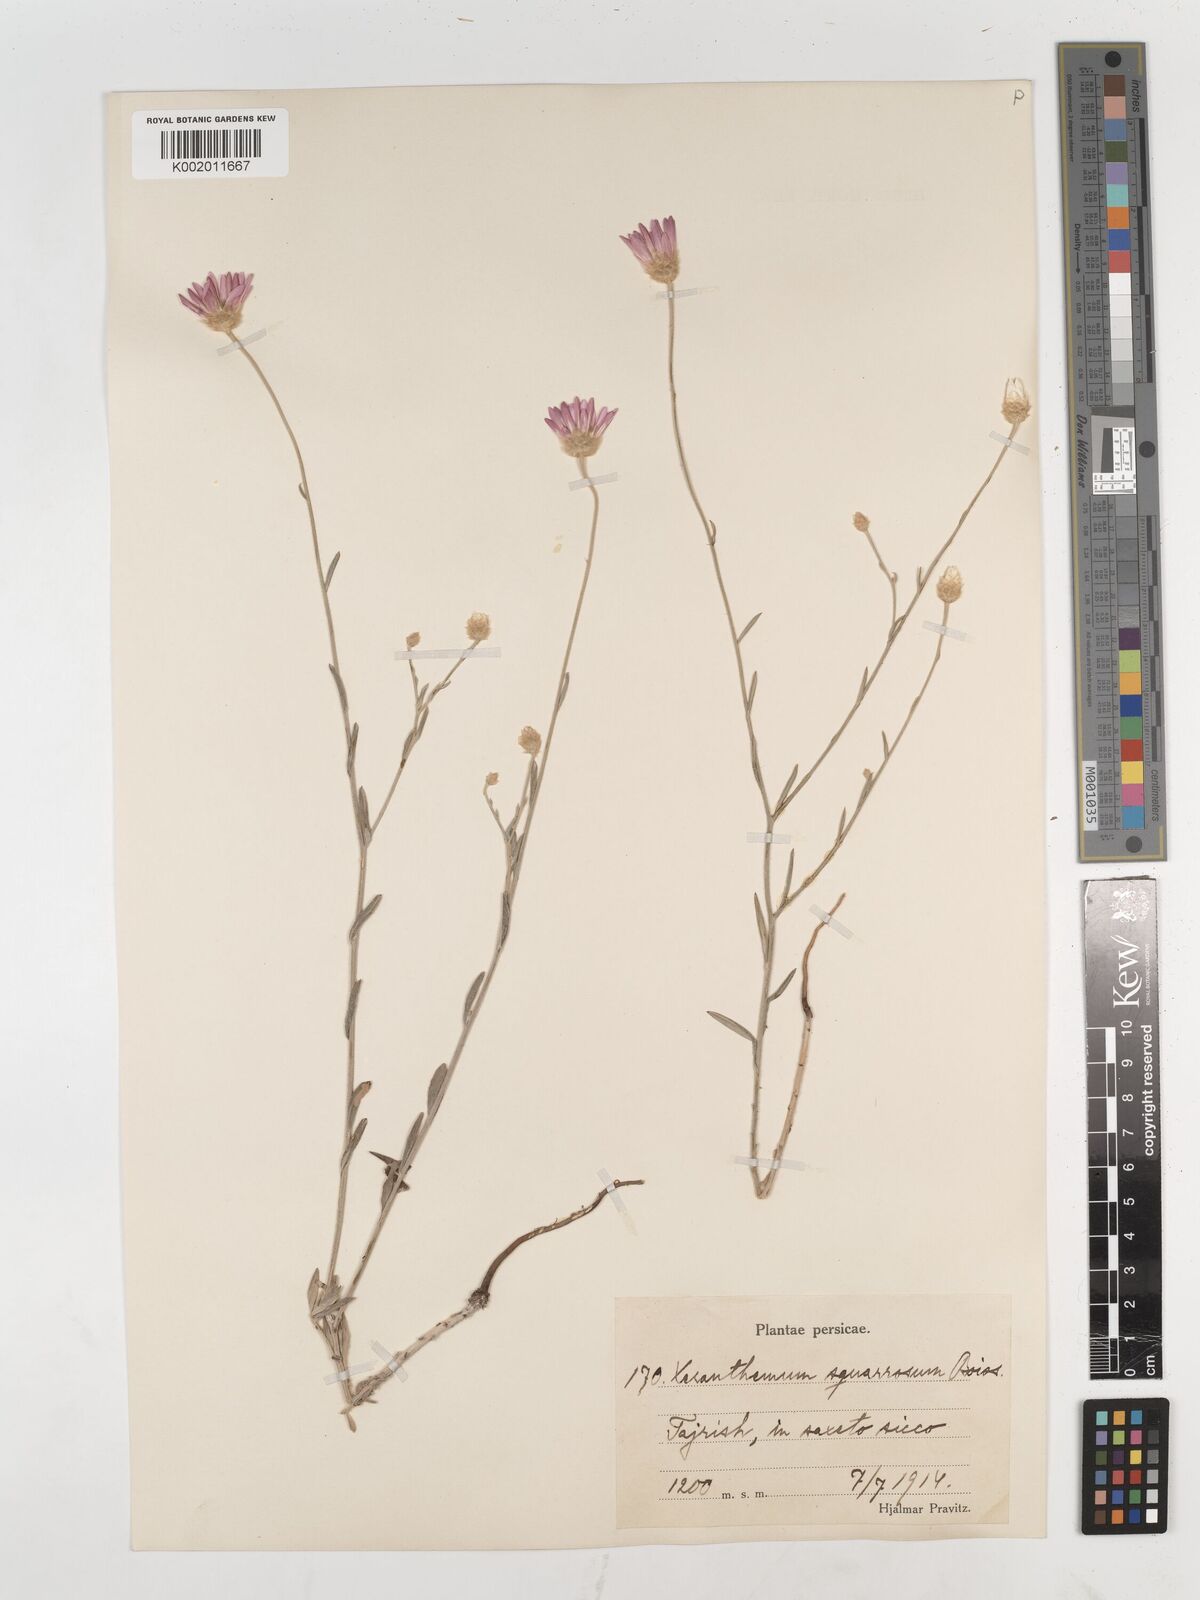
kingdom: Plantae
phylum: Tracheophyta
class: Magnoliopsida
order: Asterales
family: Asteraceae
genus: Xeranthemum
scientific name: Xeranthemum squarrosum
